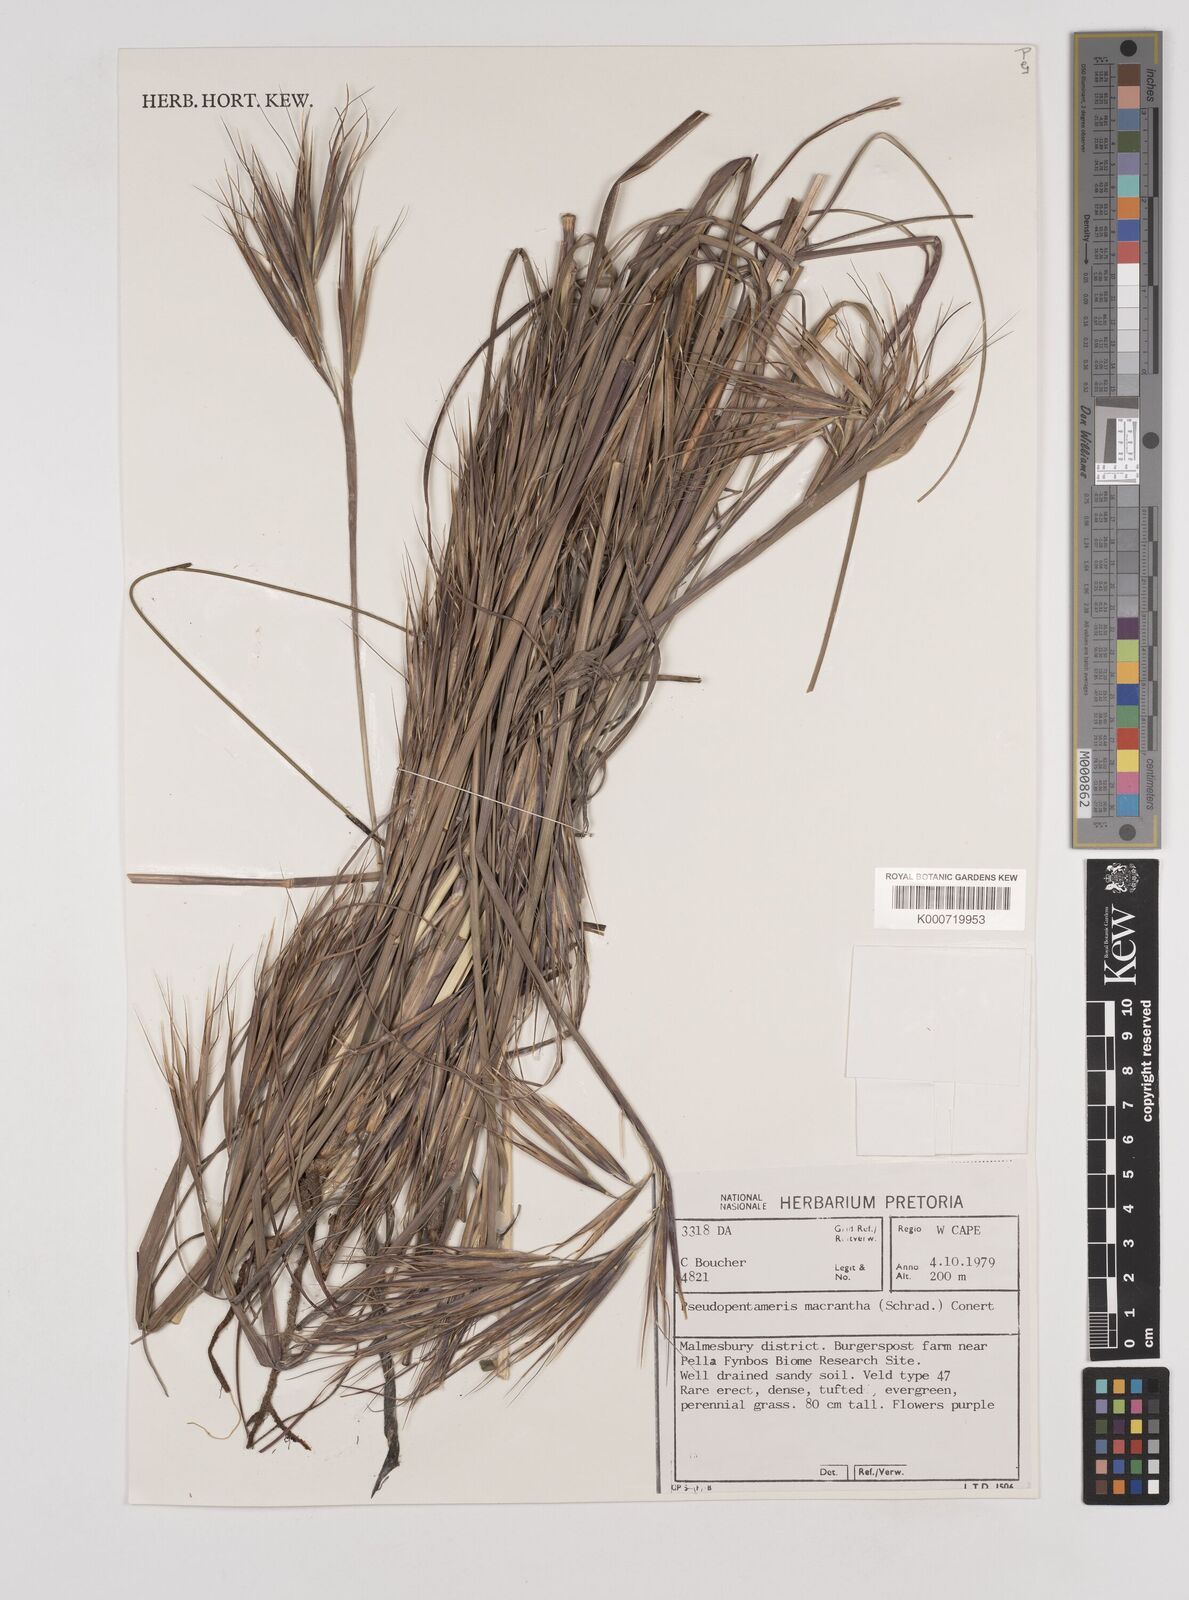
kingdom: Plantae
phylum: Tracheophyta
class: Liliopsida
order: Poales
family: Poaceae
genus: Pseudopentameris
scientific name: Pseudopentameris macrantha
